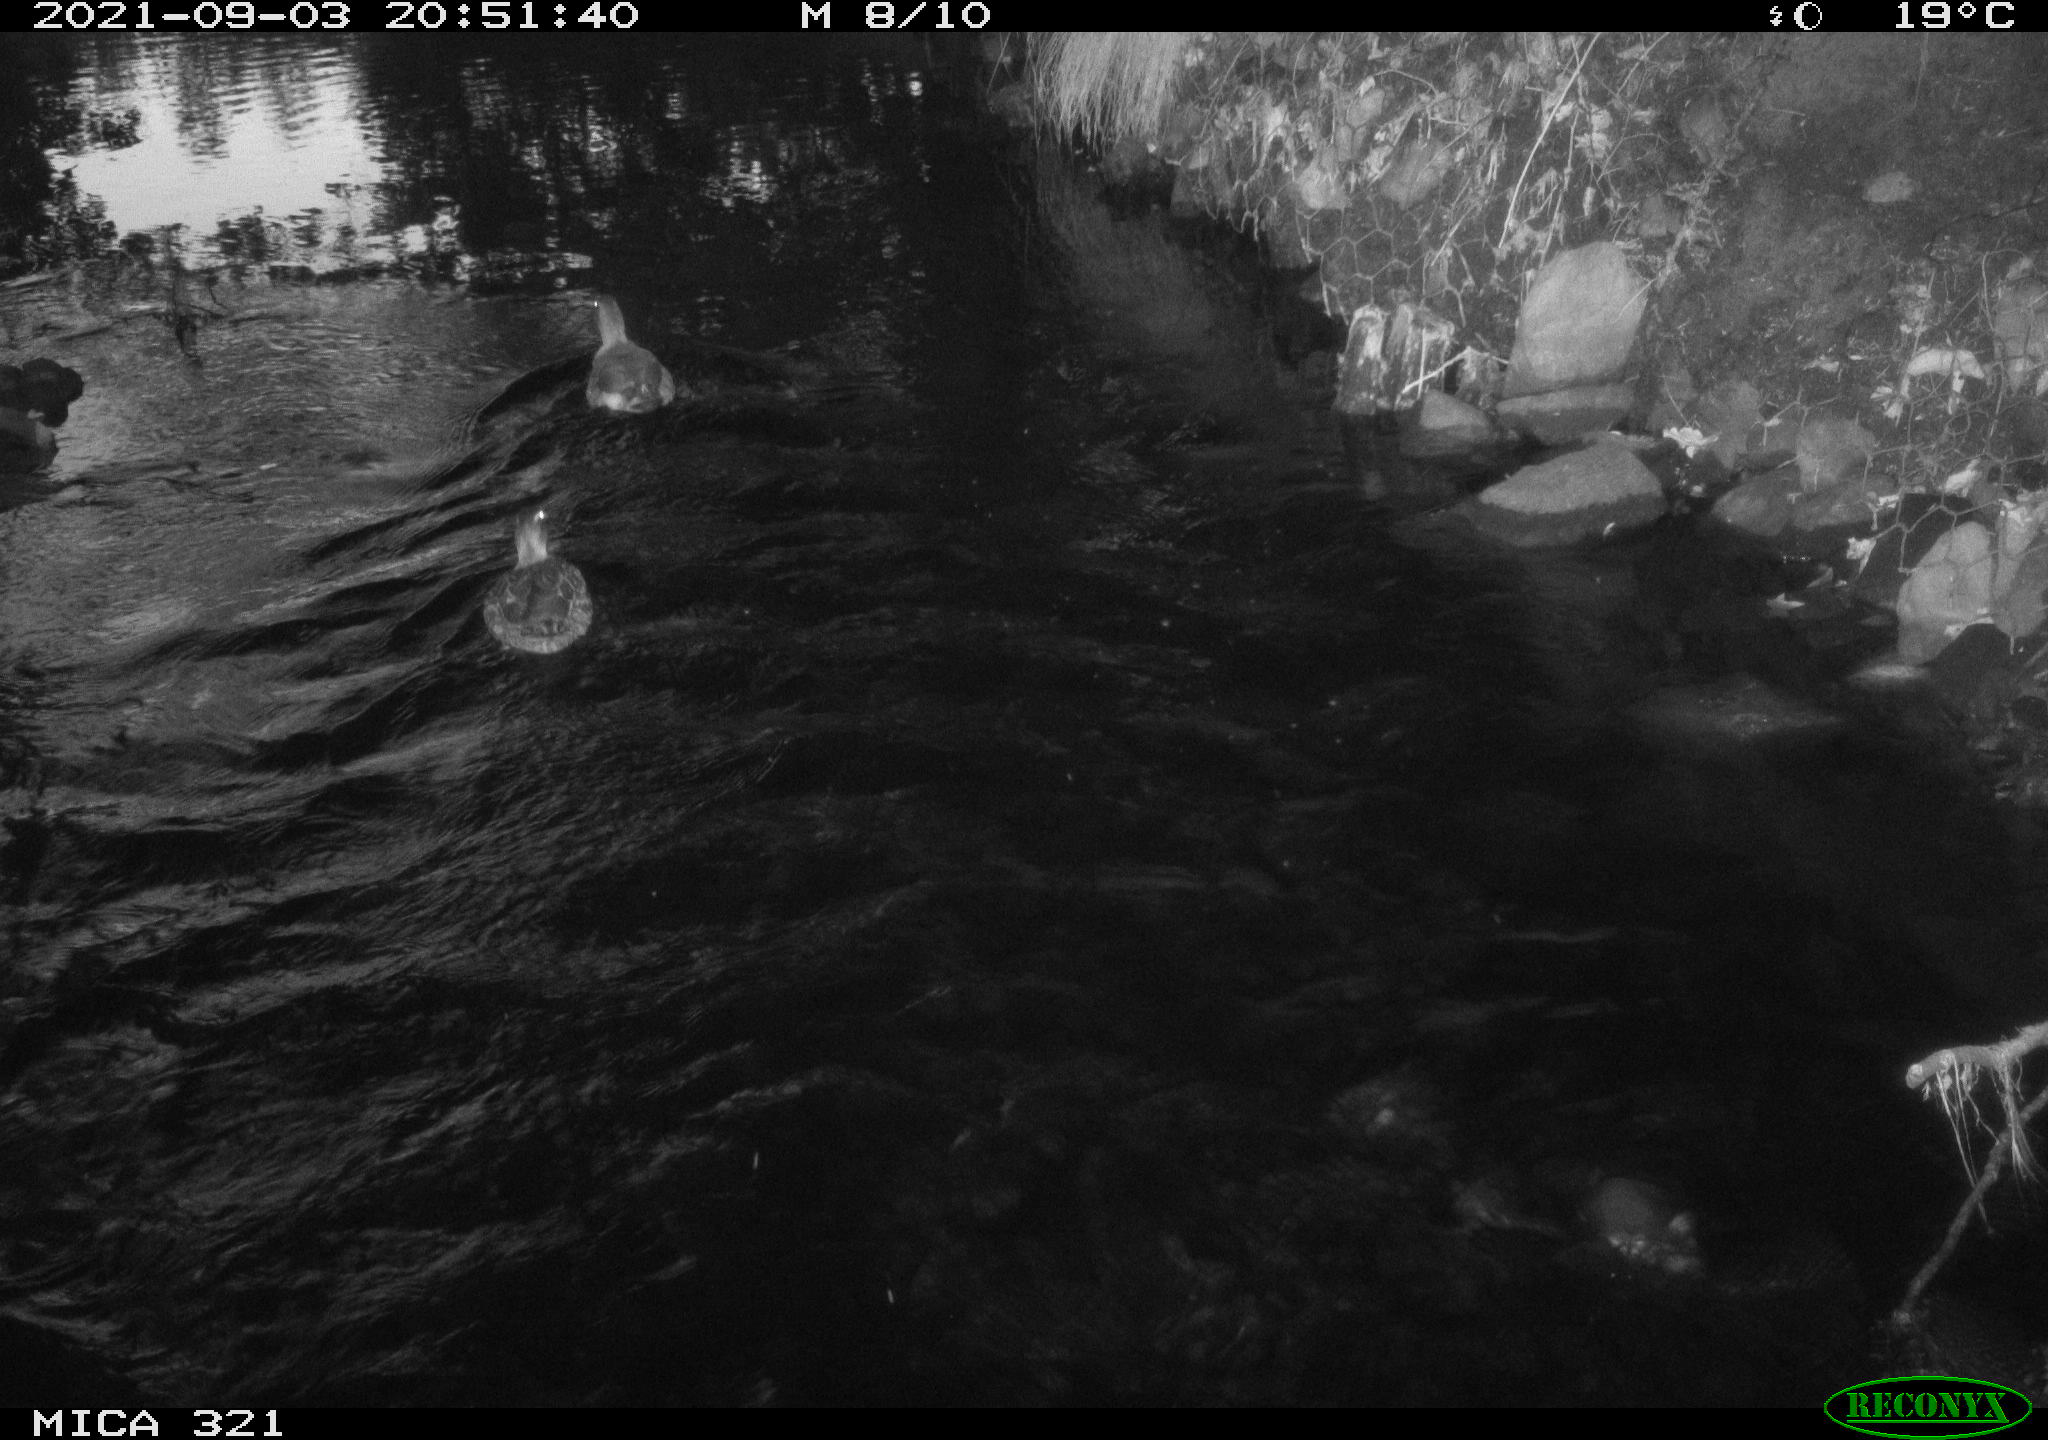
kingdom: Animalia
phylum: Chordata
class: Aves
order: Anseriformes
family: Anatidae
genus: Anas
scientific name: Anas platyrhynchos
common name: Mallard
